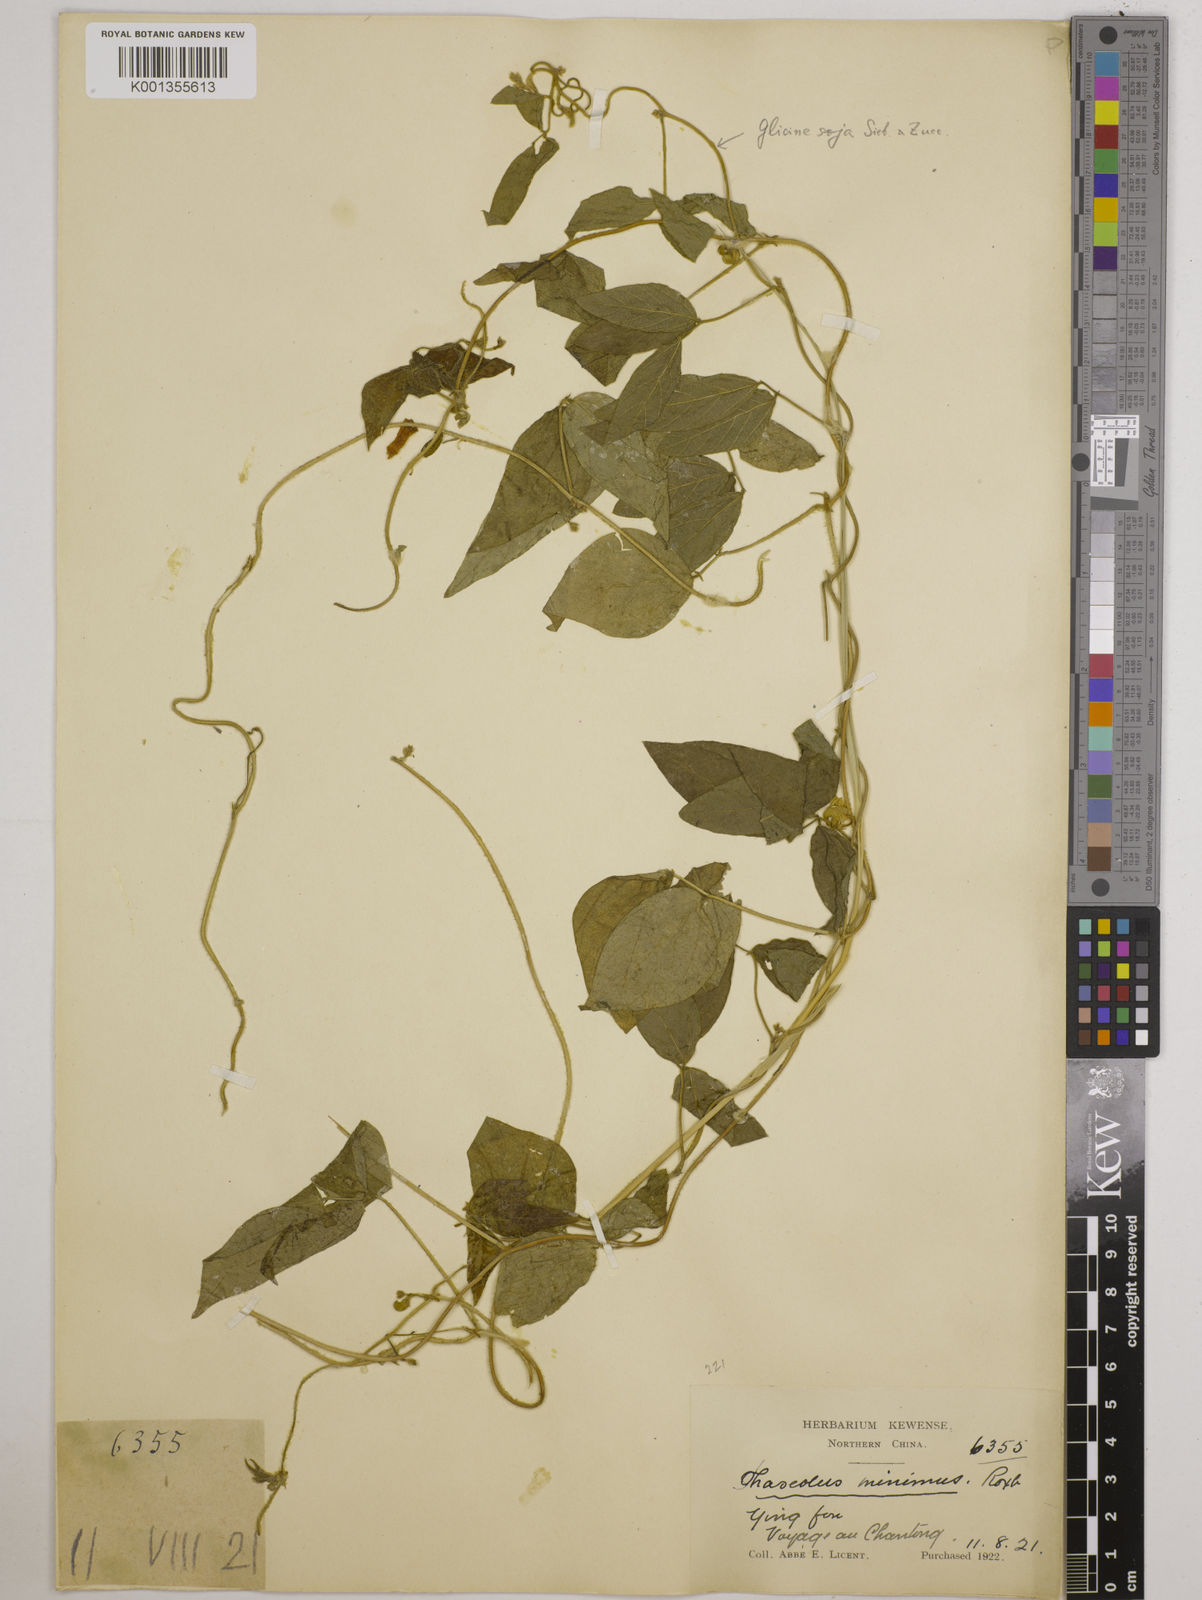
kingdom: Plantae
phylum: Tracheophyta
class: Magnoliopsida
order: Fabales
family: Fabaceae
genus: Vigna
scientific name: Vigna minima
